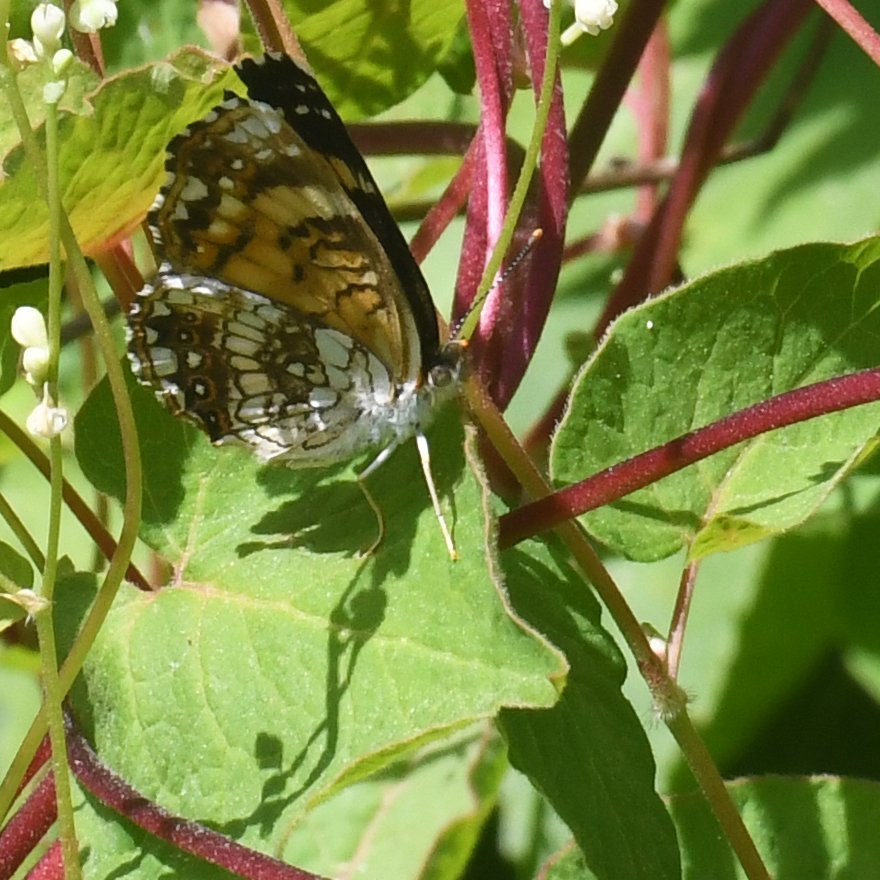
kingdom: Animalia
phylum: Arthropoda
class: Insecta
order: Lepidoptera
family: Nymphalidae
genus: Chlosyne
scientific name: Chlosyne nycteis
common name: Silvery Checkerspot
